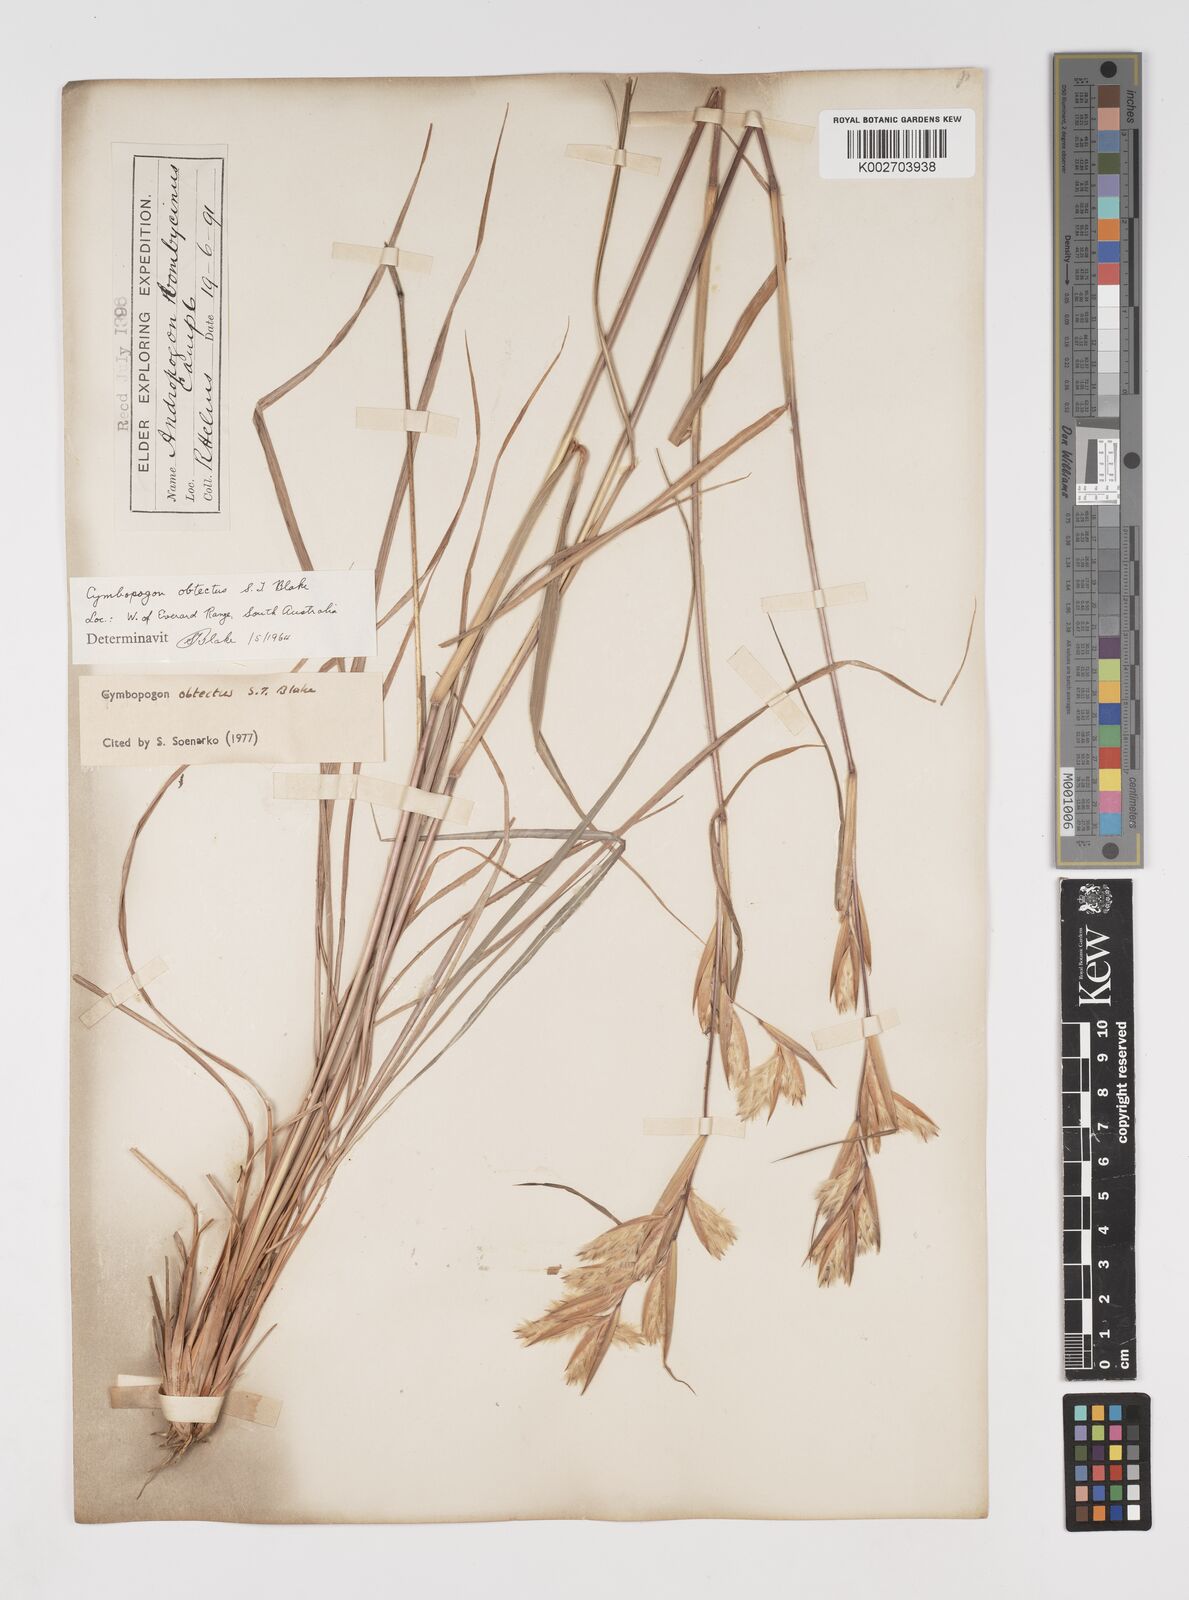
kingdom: Plantae
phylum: Tracheophyta
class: Liliopsida
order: Poales
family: Poaceae
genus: Cymbopogon
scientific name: Cymbopogon obtectus
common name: Silky heads
